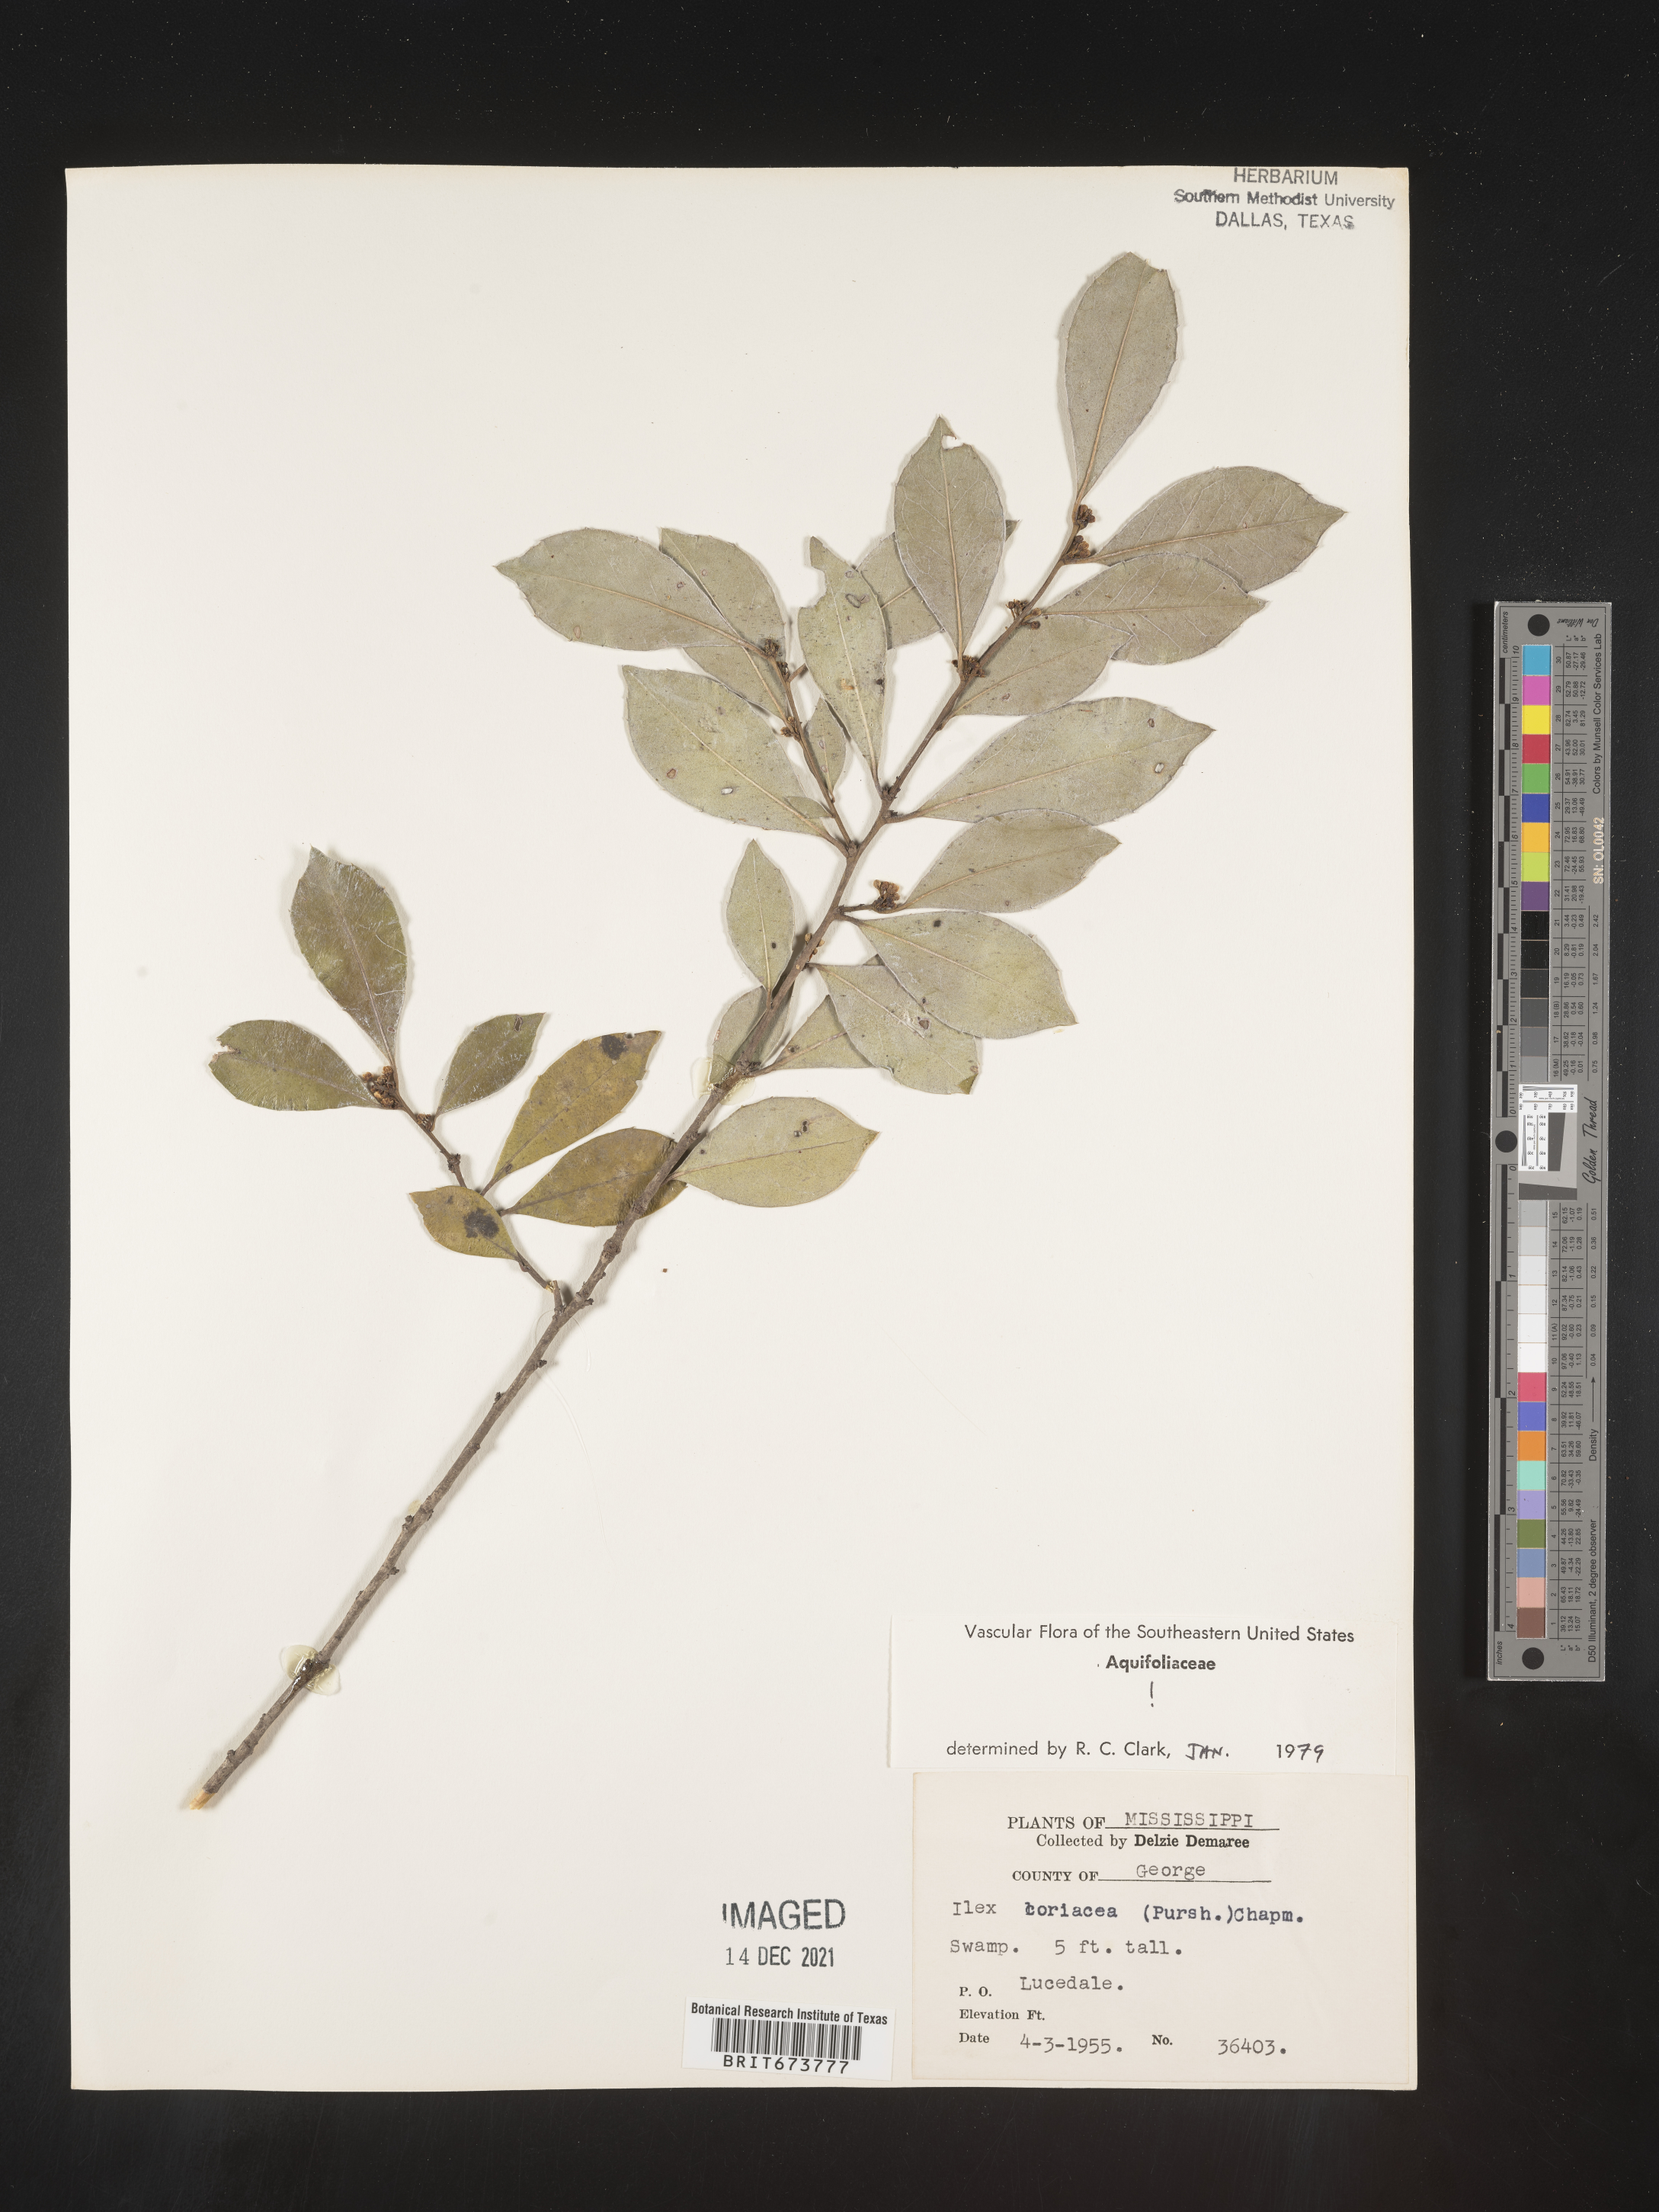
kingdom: Plantae
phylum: Tracheophyta
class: Magnoliopsida
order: Aquifoliales
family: Aquifoliaceae
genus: Ilex
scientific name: Ilex coriacea
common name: Sweet gallberry
